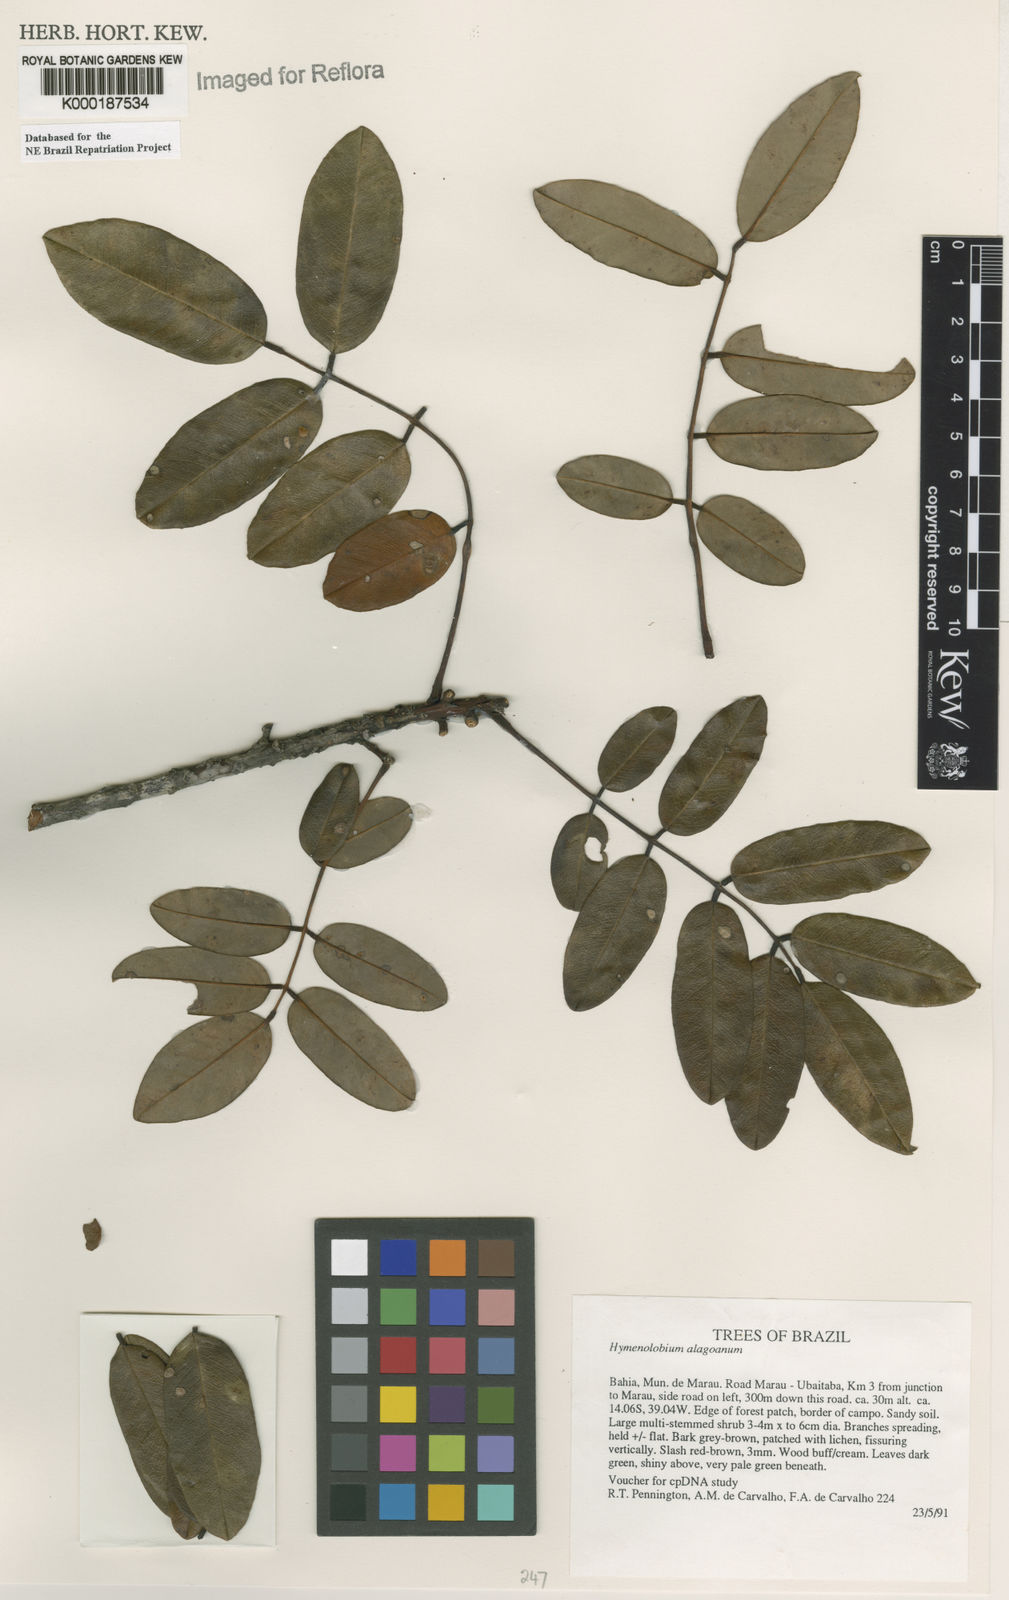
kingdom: Plantae
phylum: Tracheophyta
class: Magnoliopsida
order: Fabales
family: Fabaceae
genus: Hymenolobium
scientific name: Hymenolobium alagoanum
